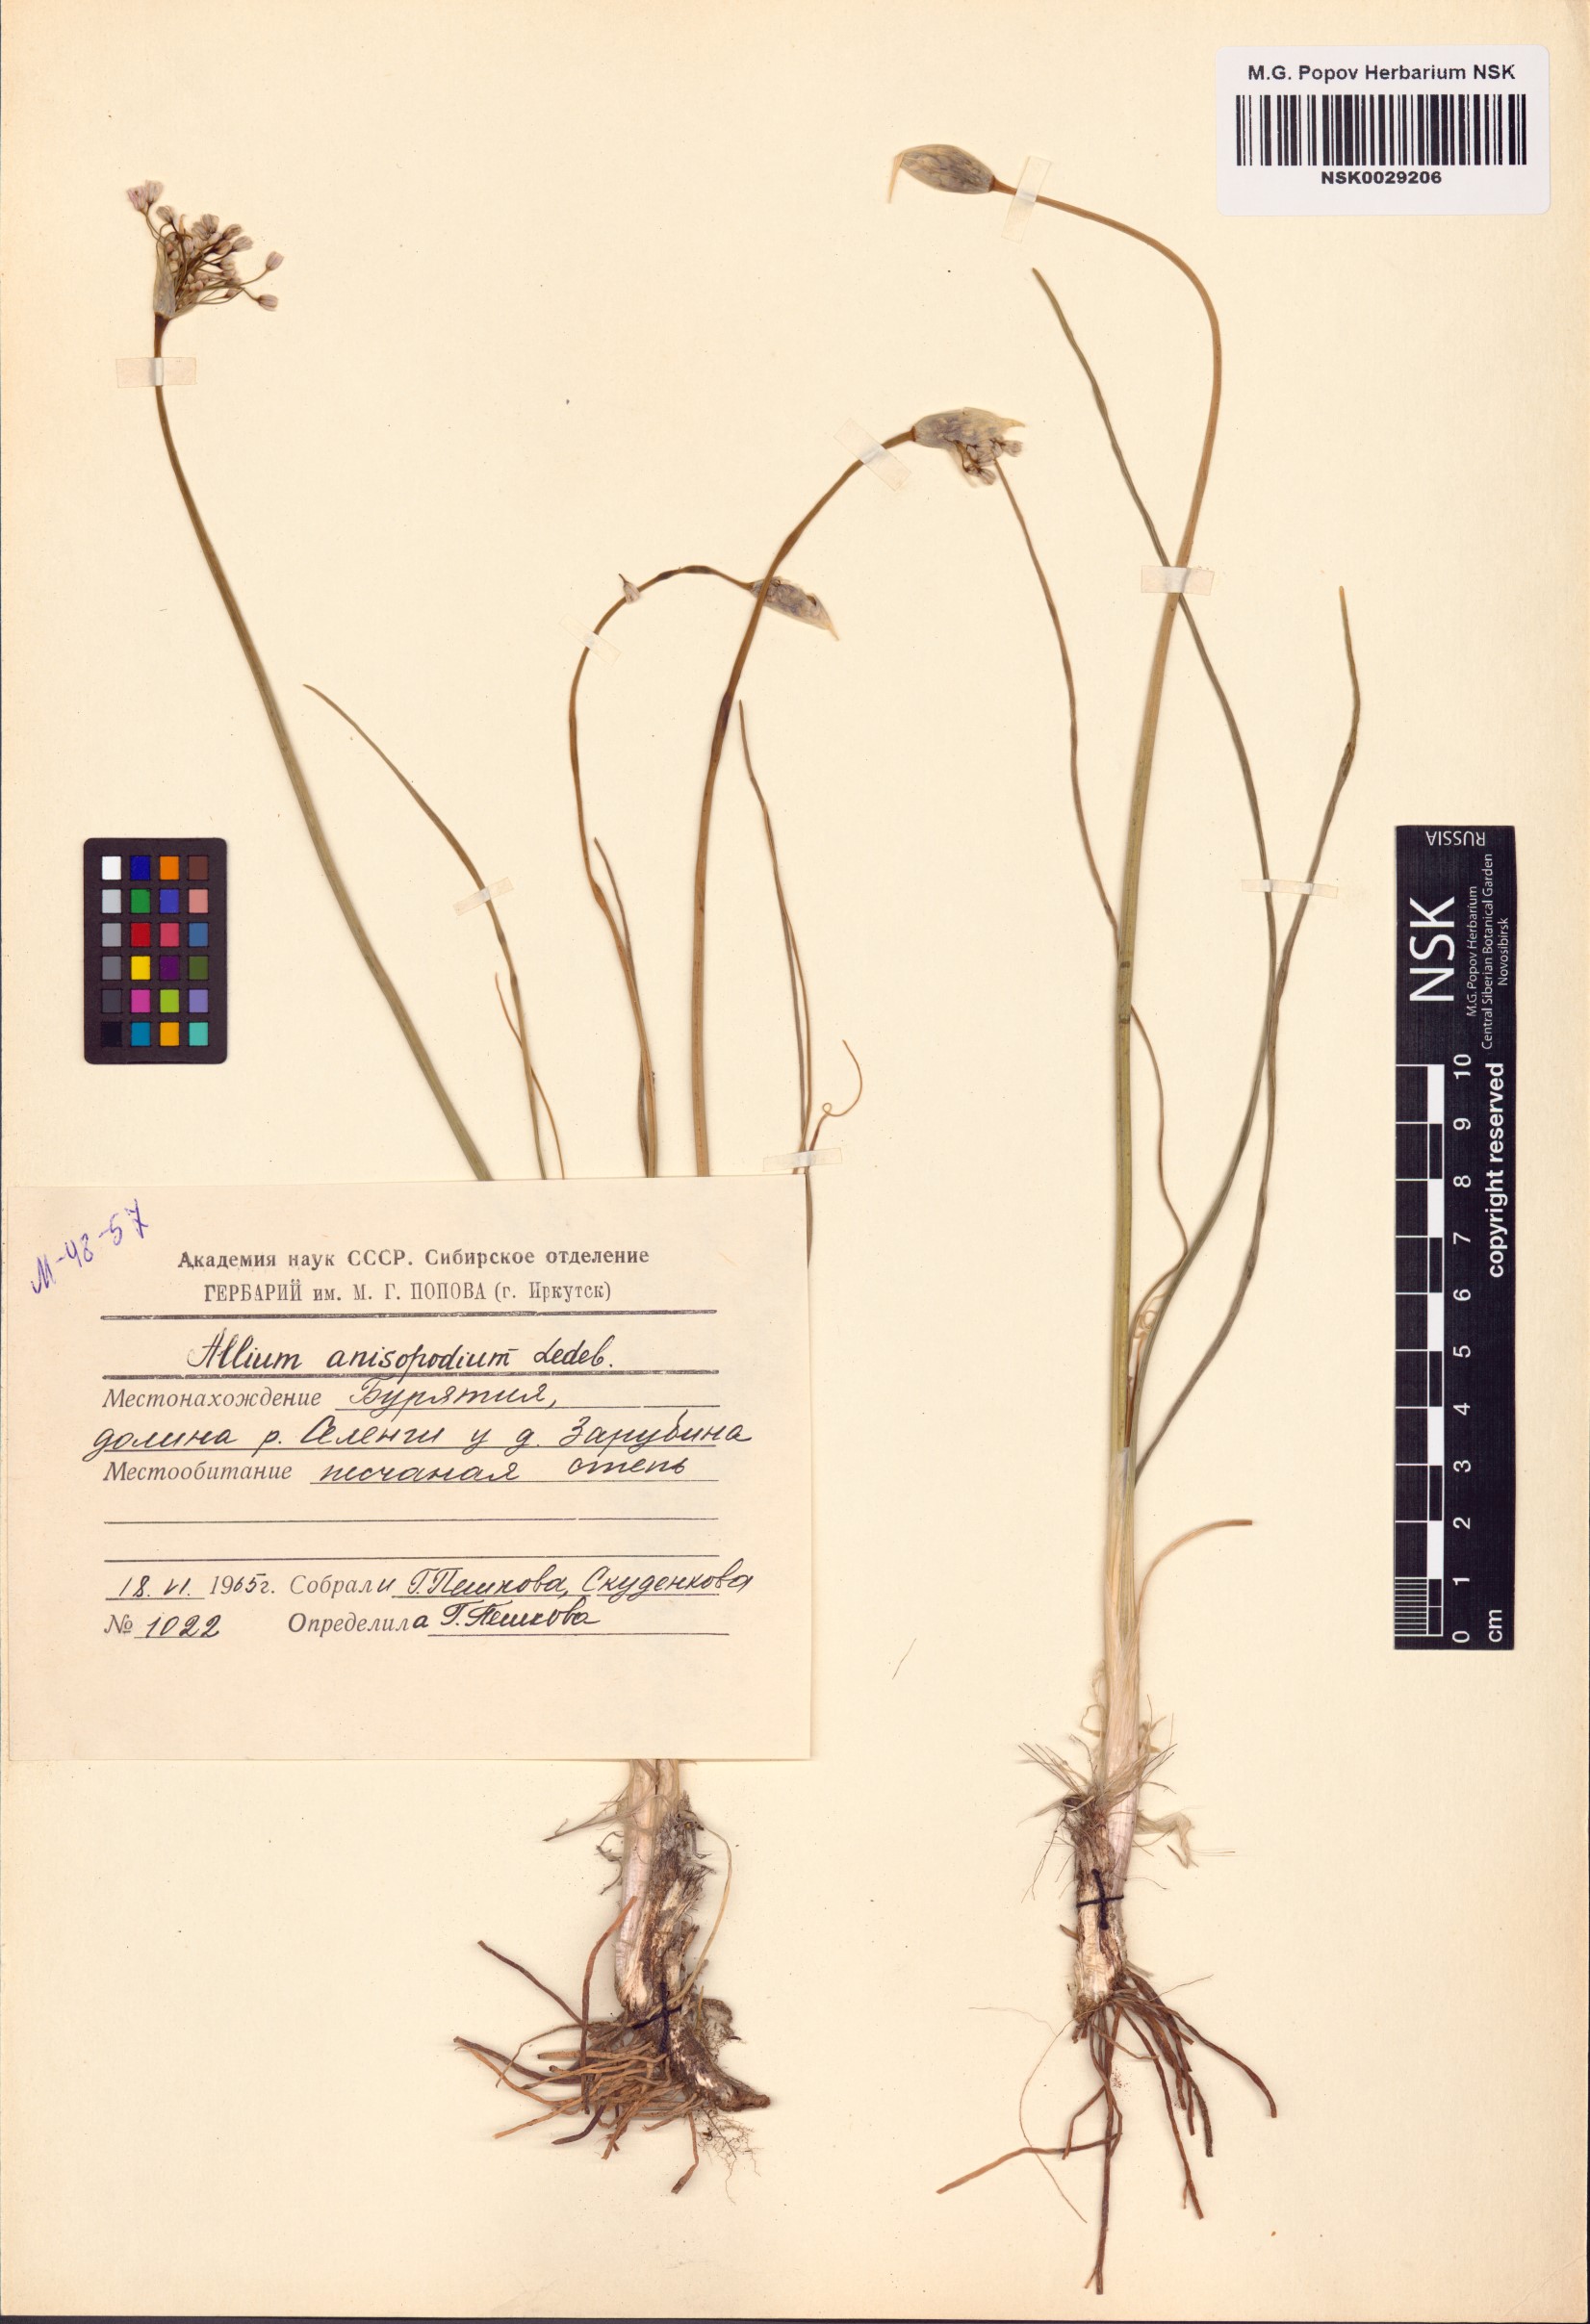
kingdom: Plantae
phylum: Tracheophyta
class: Liliopsida
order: Asparagales
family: Amaryllidaceae
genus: Allium
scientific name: Allium anisopodium
